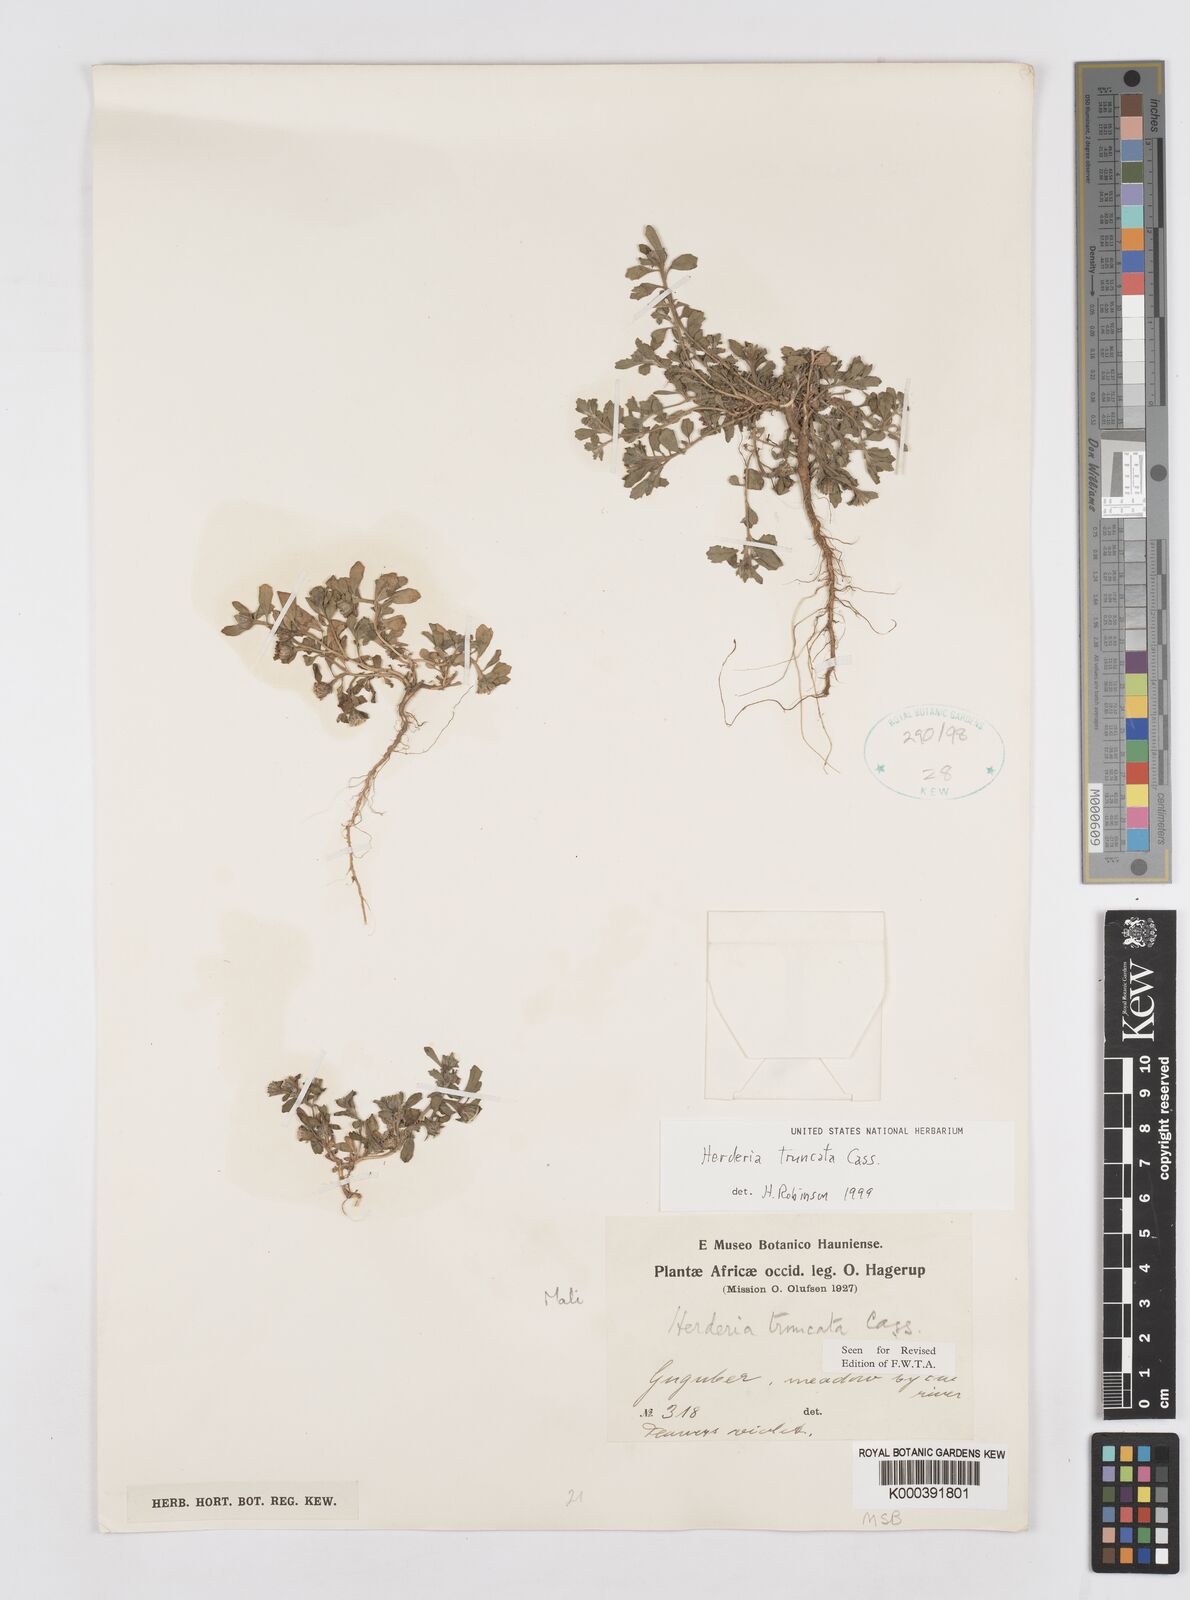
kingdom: Plantae
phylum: Tracheophyta
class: Magnoliopsida
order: Asterales
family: Asteraceae
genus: Herderia
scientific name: Herderia truncata
